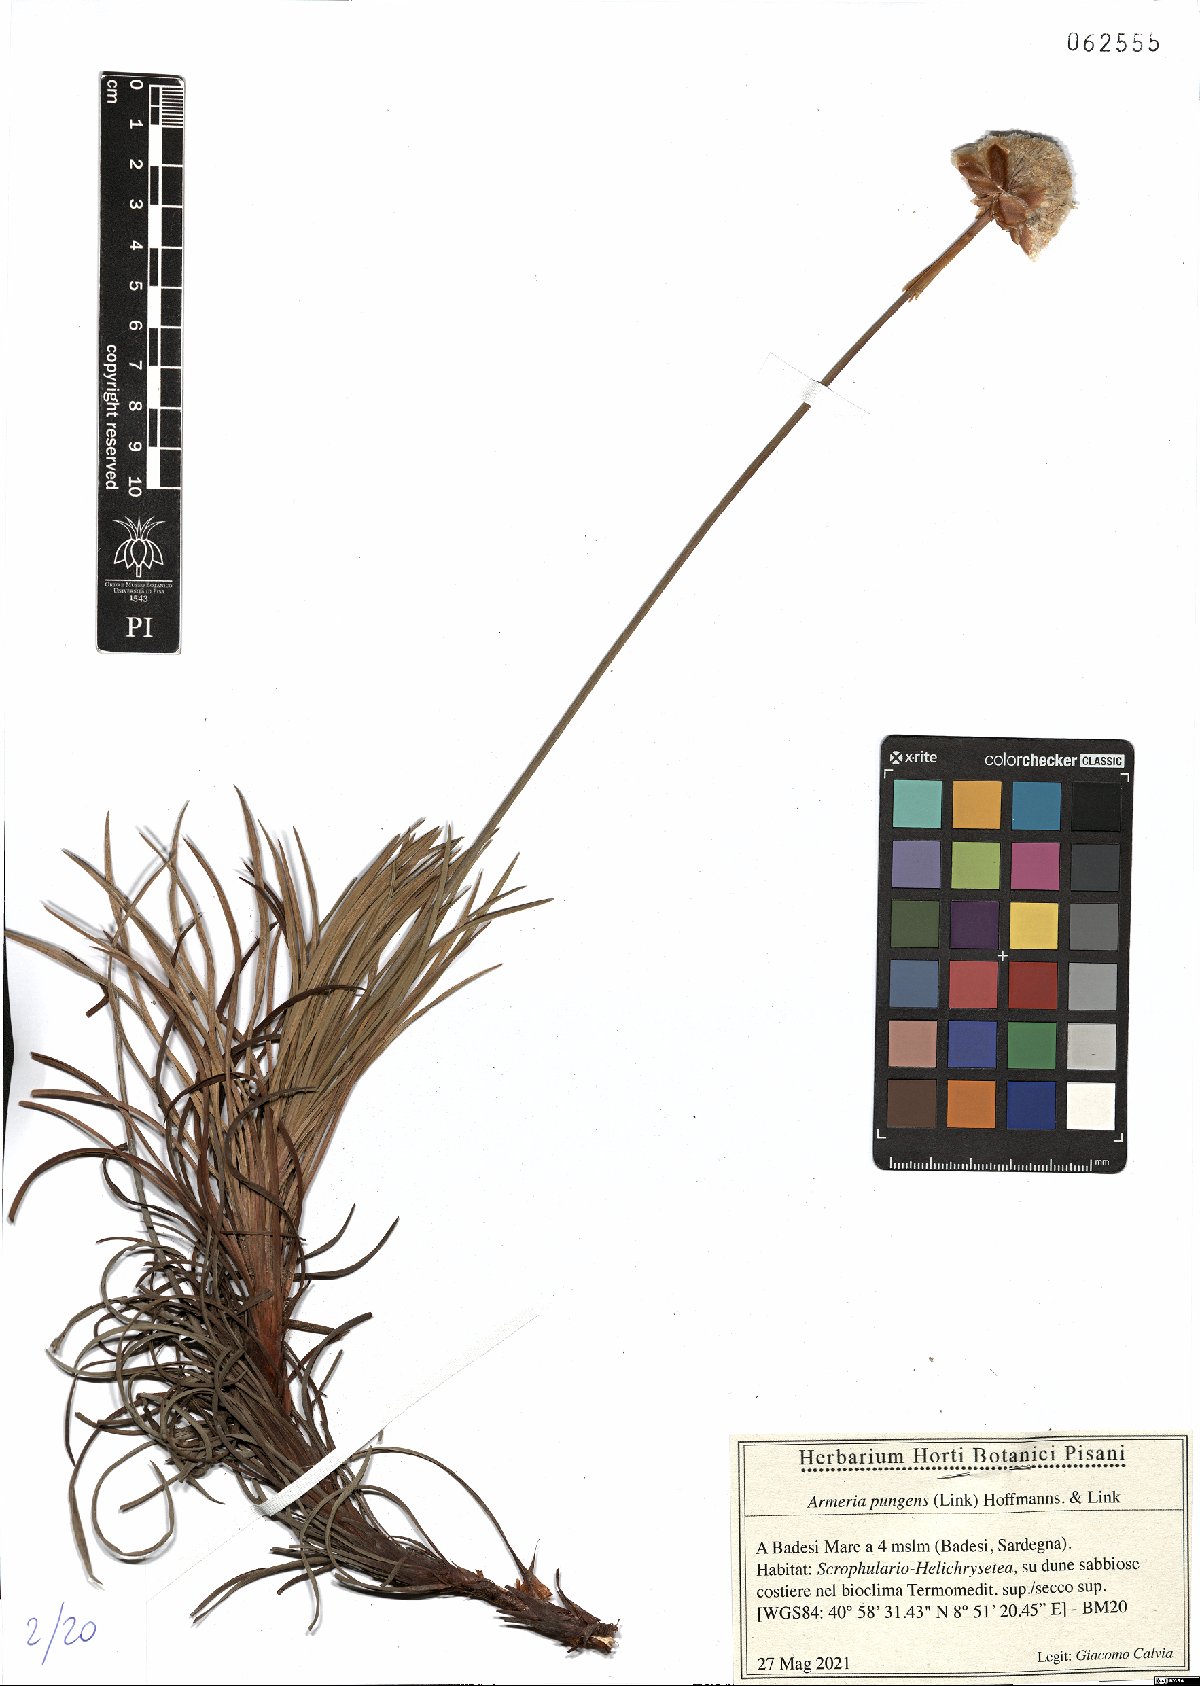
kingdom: Plantae
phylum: Tracheophyta
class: Magnoliopsida
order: Caryophyllales
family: Plumbaginaceae
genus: Armeria
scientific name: Armeria pungens
